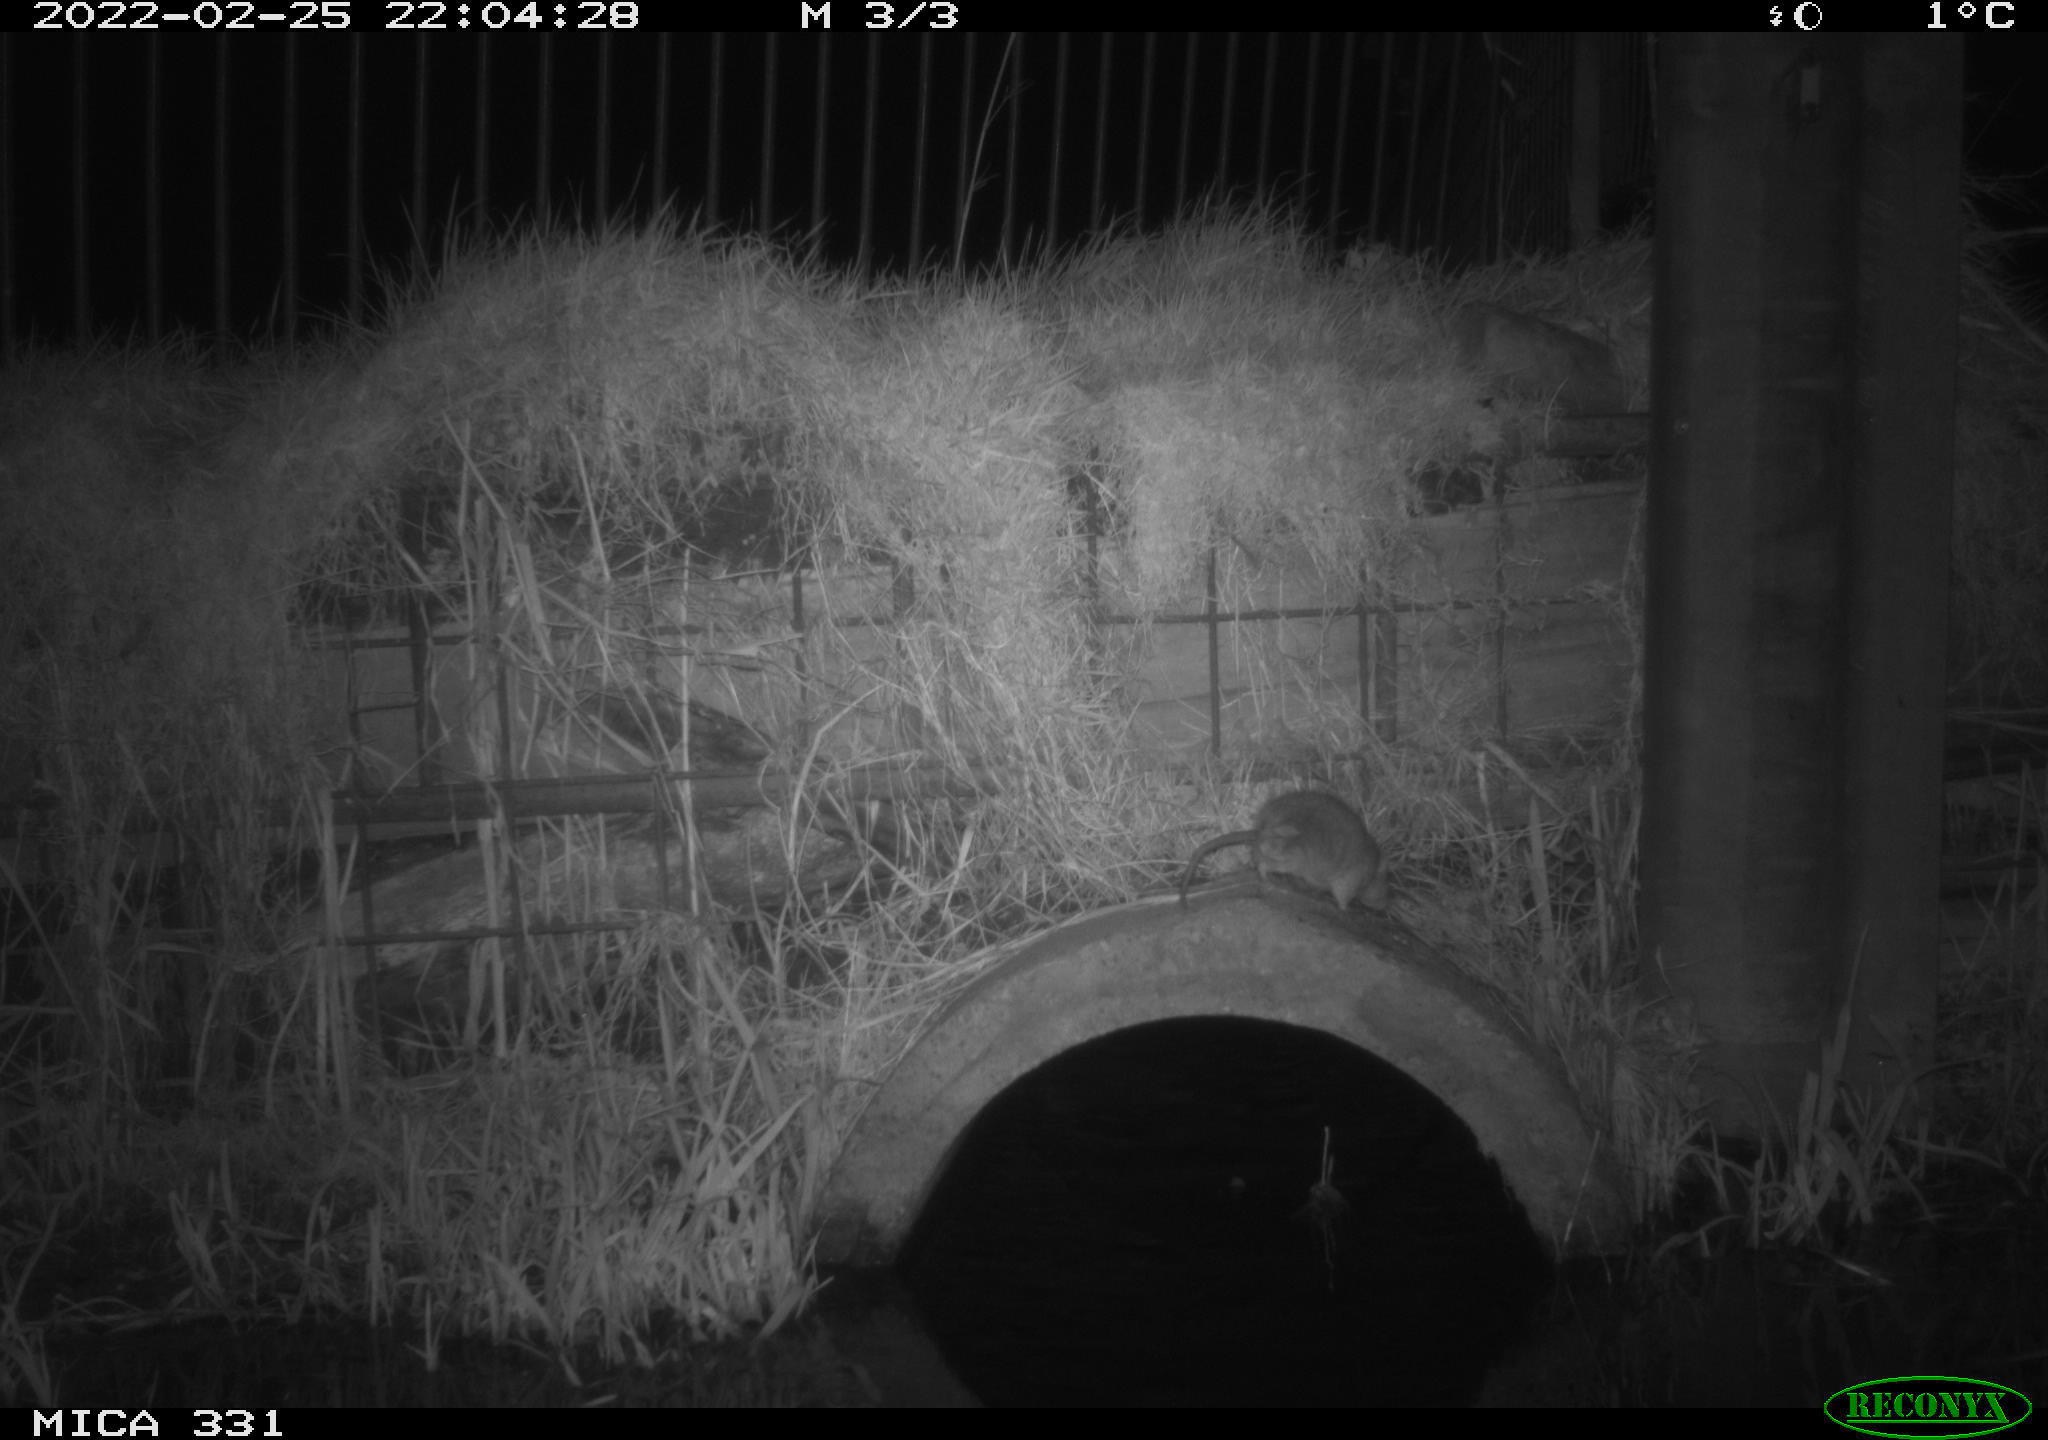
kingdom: Animalia
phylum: Chordata
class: Mammalia
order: Rodentia
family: Muridae
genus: Rattus
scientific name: Rattus norvegicus
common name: Brown rat
